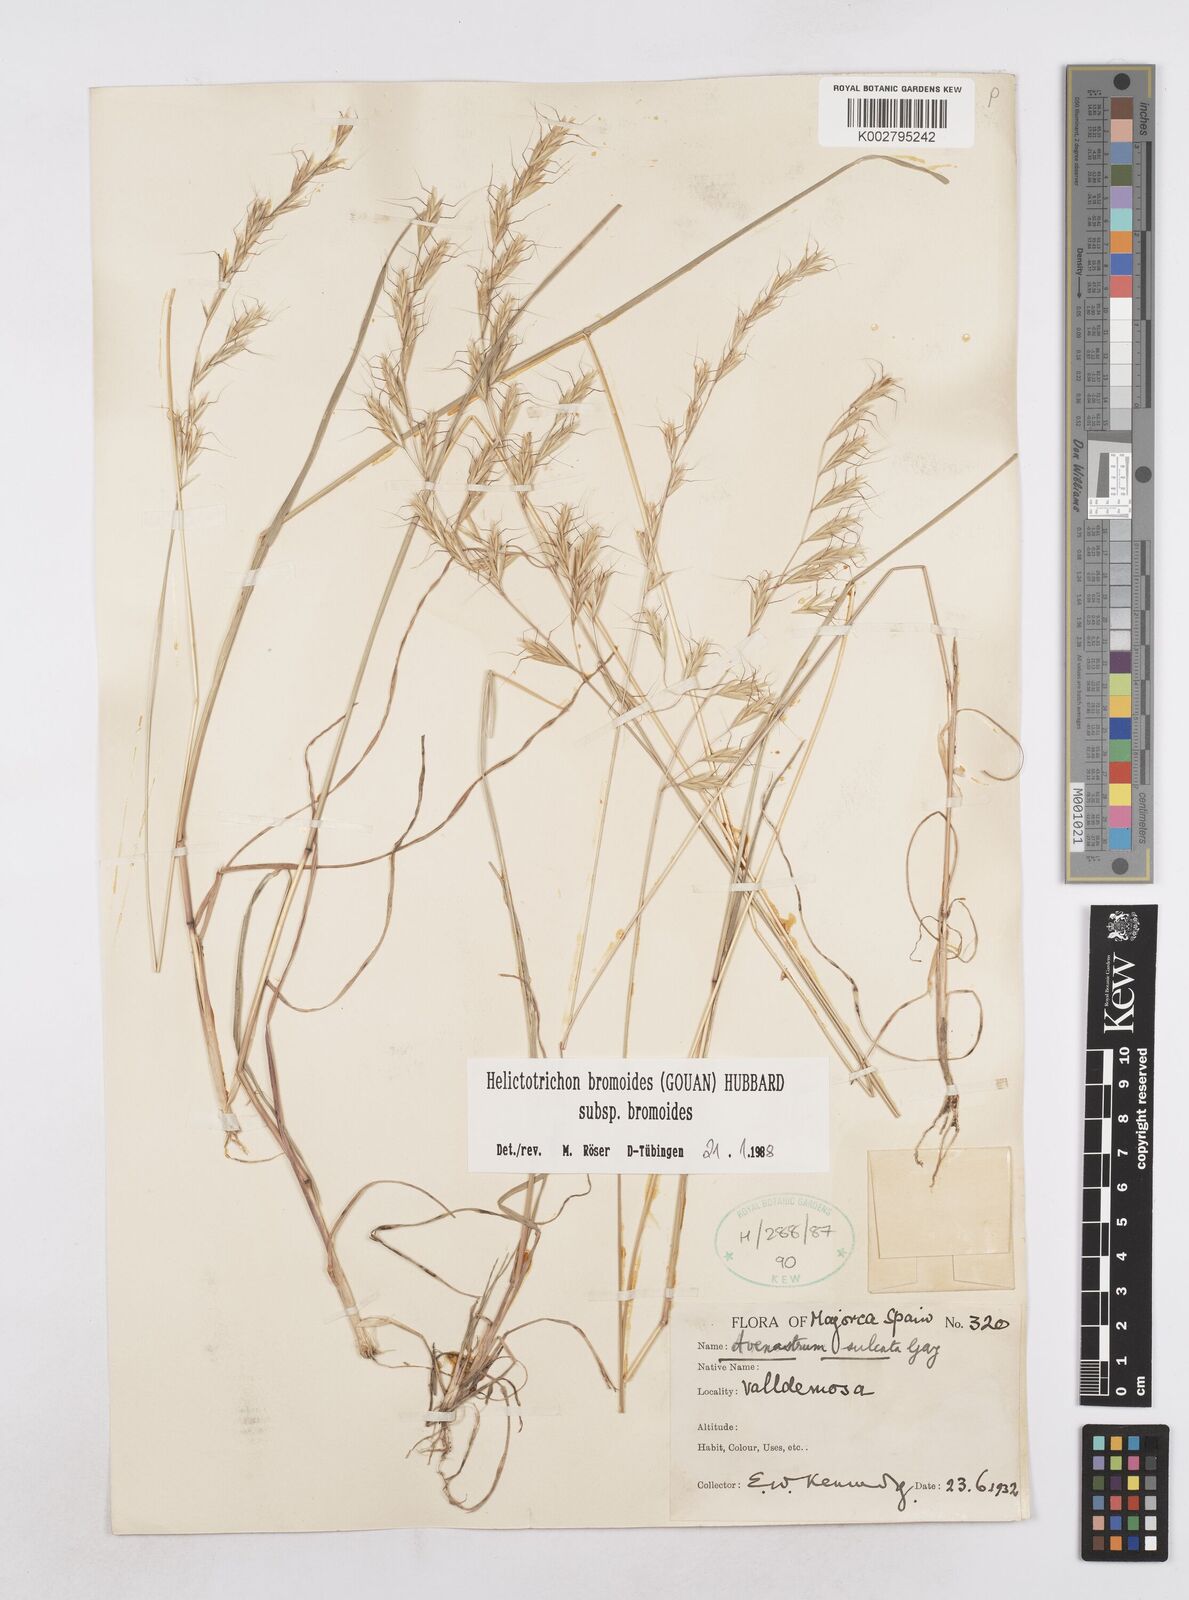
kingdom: Plantae
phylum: Tracheophyta
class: Liliopsida
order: Poales
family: Poaceae
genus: Helictochloa
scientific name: Helictochloa bromoides
